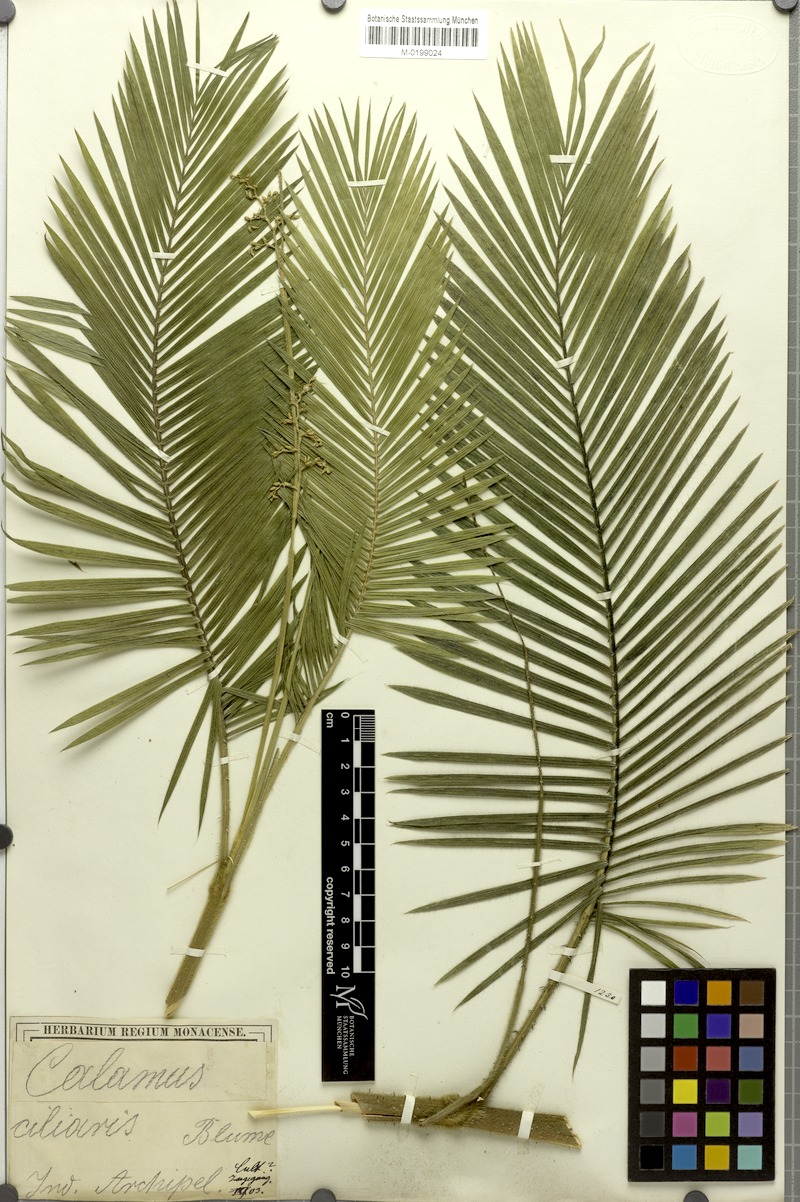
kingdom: Plantae
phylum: Tracheophyta
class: Liliopsida
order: Arecales
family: Arecaceae
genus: Calamus
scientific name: Calamus ciliaris
